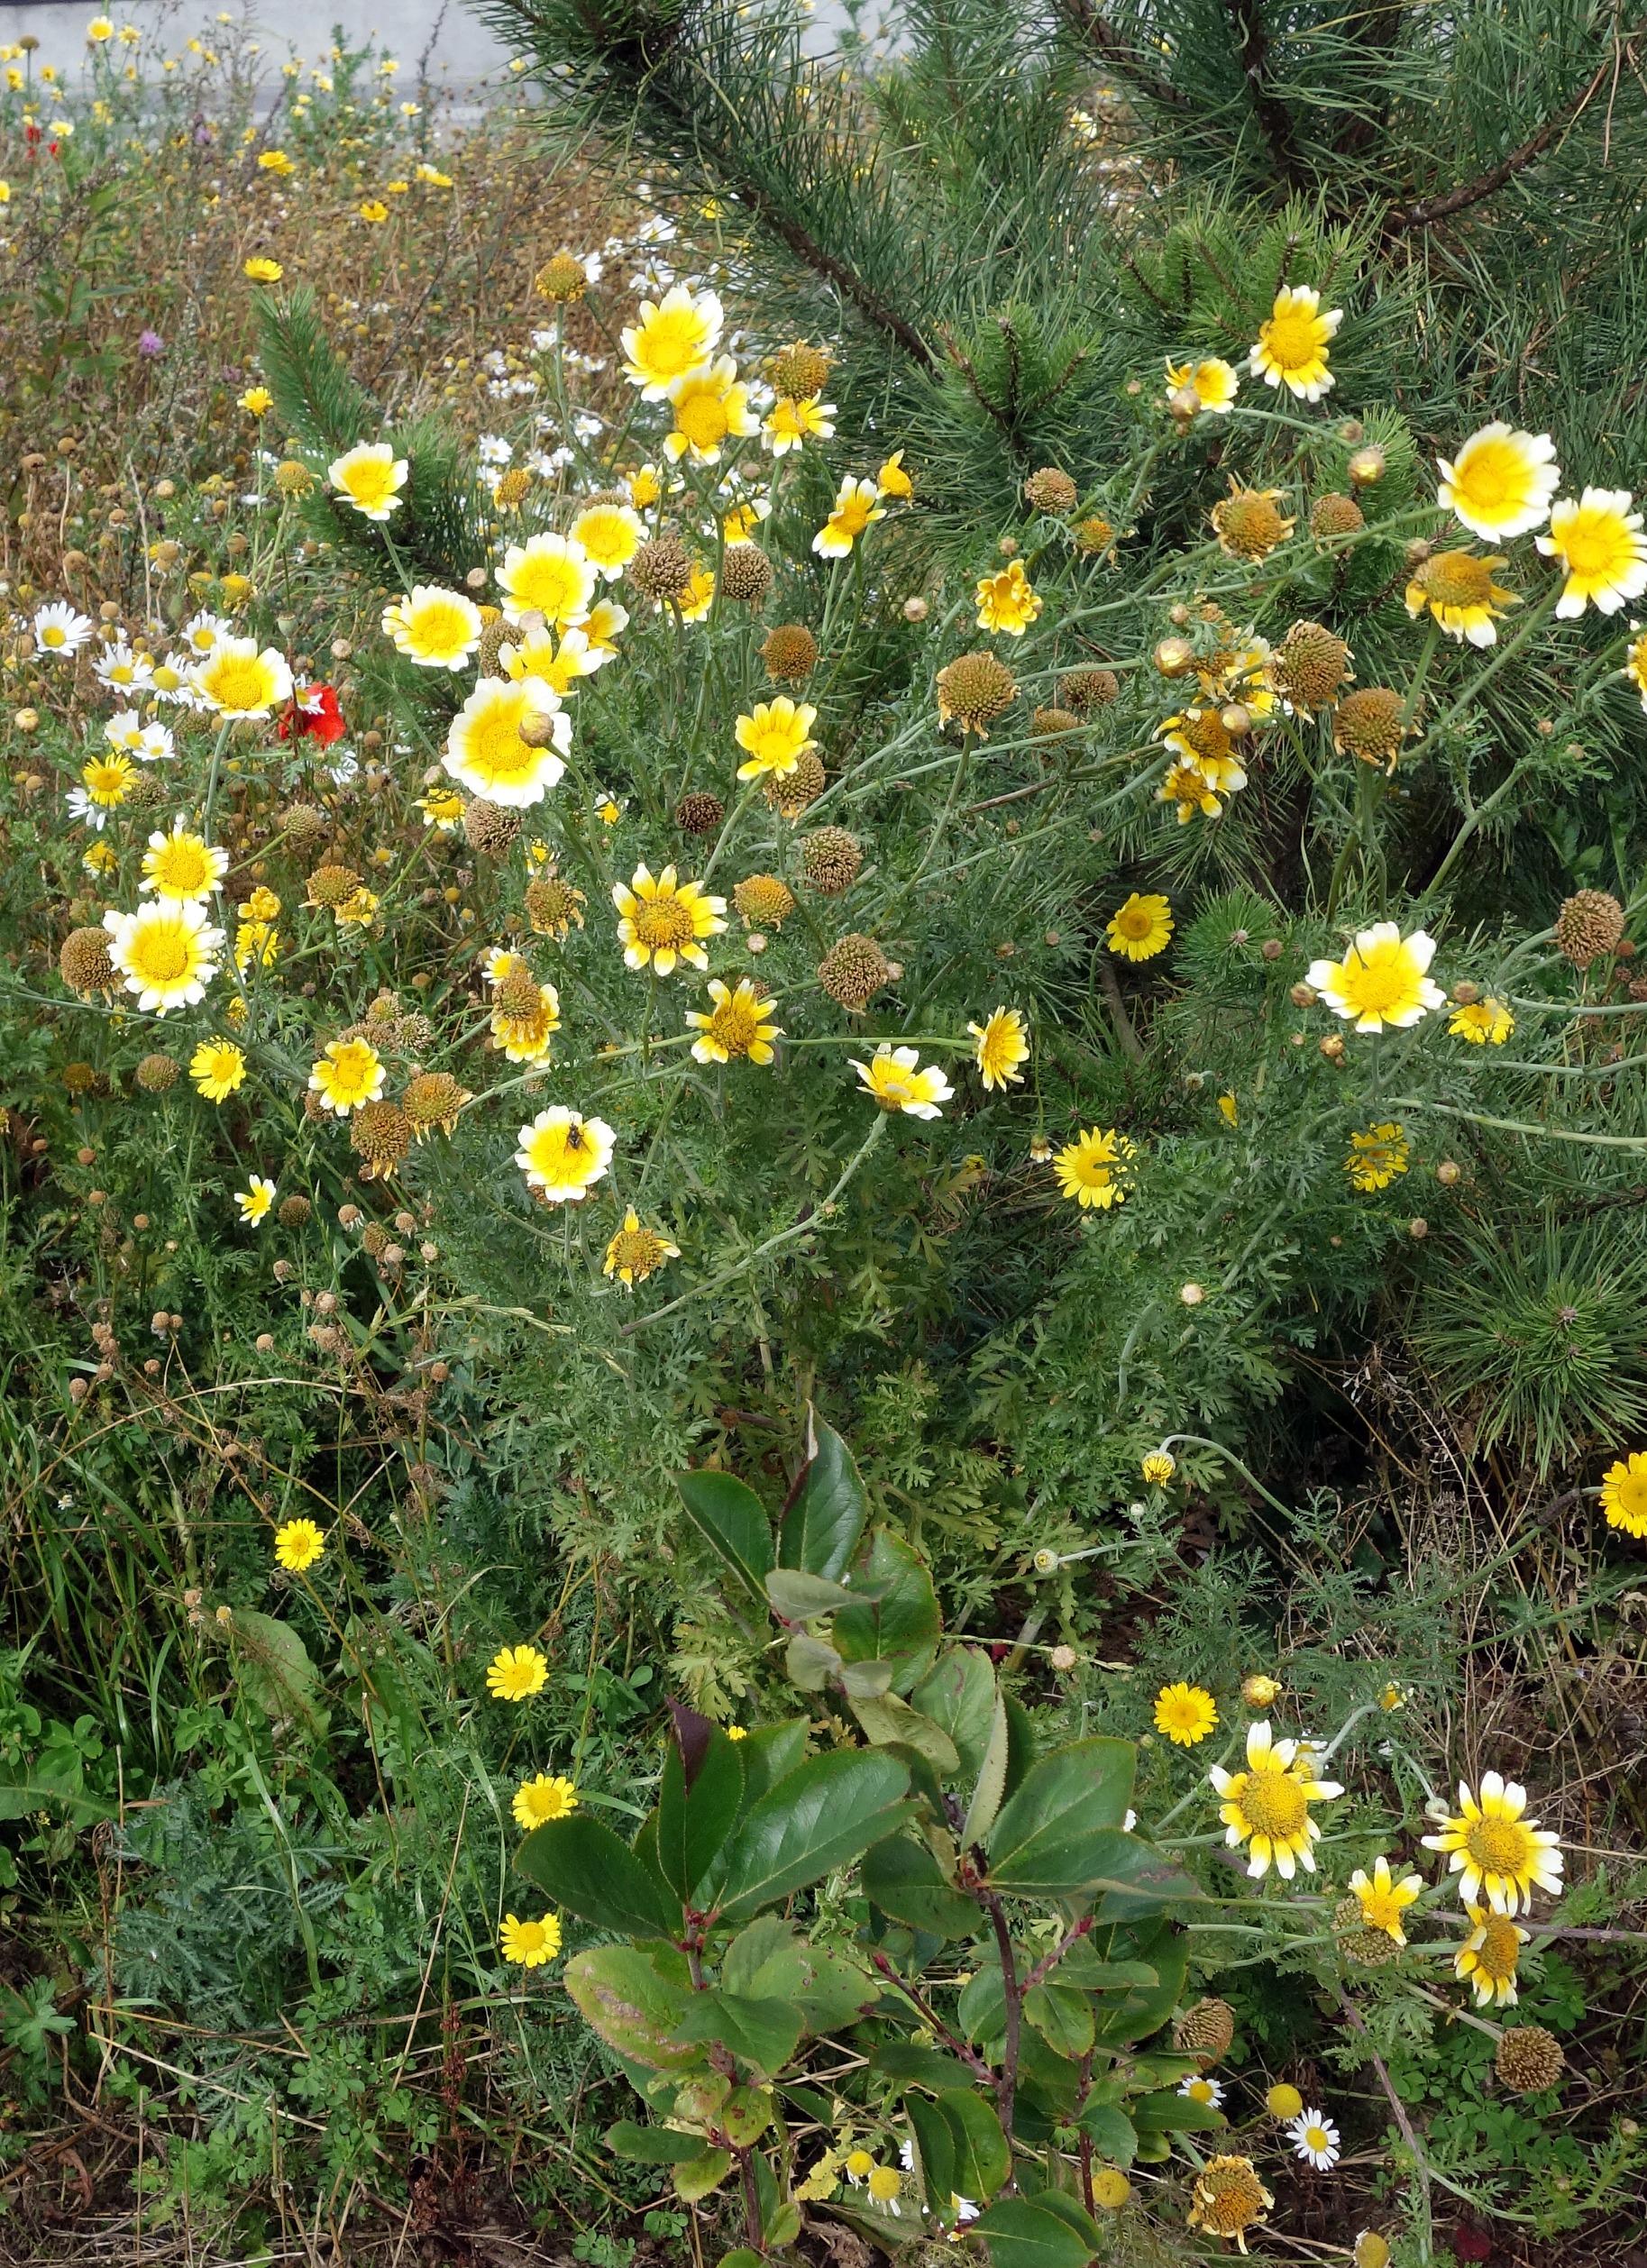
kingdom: Plantae
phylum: Tracheophyta
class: Magnoliopsida
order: Asterales
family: Asteraceae
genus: Cota
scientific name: Cota tinctoria
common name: Farve-gåseurt
